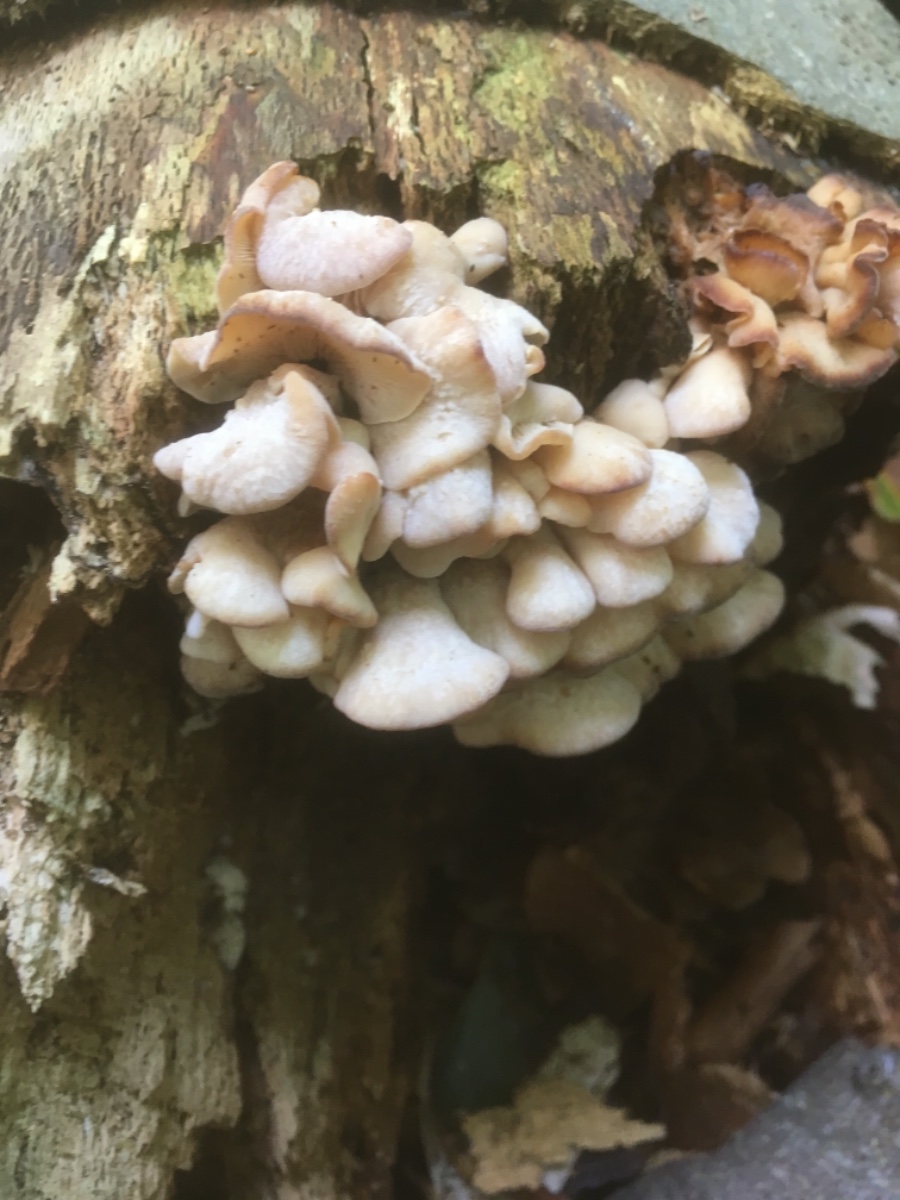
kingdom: Fungi
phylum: Basidiomycota
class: Agaricomycetes
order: Russulales
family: Auriscalpiaceae
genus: Lentinellus
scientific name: Lentinellus ursinus
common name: børstehåret savbladhat
